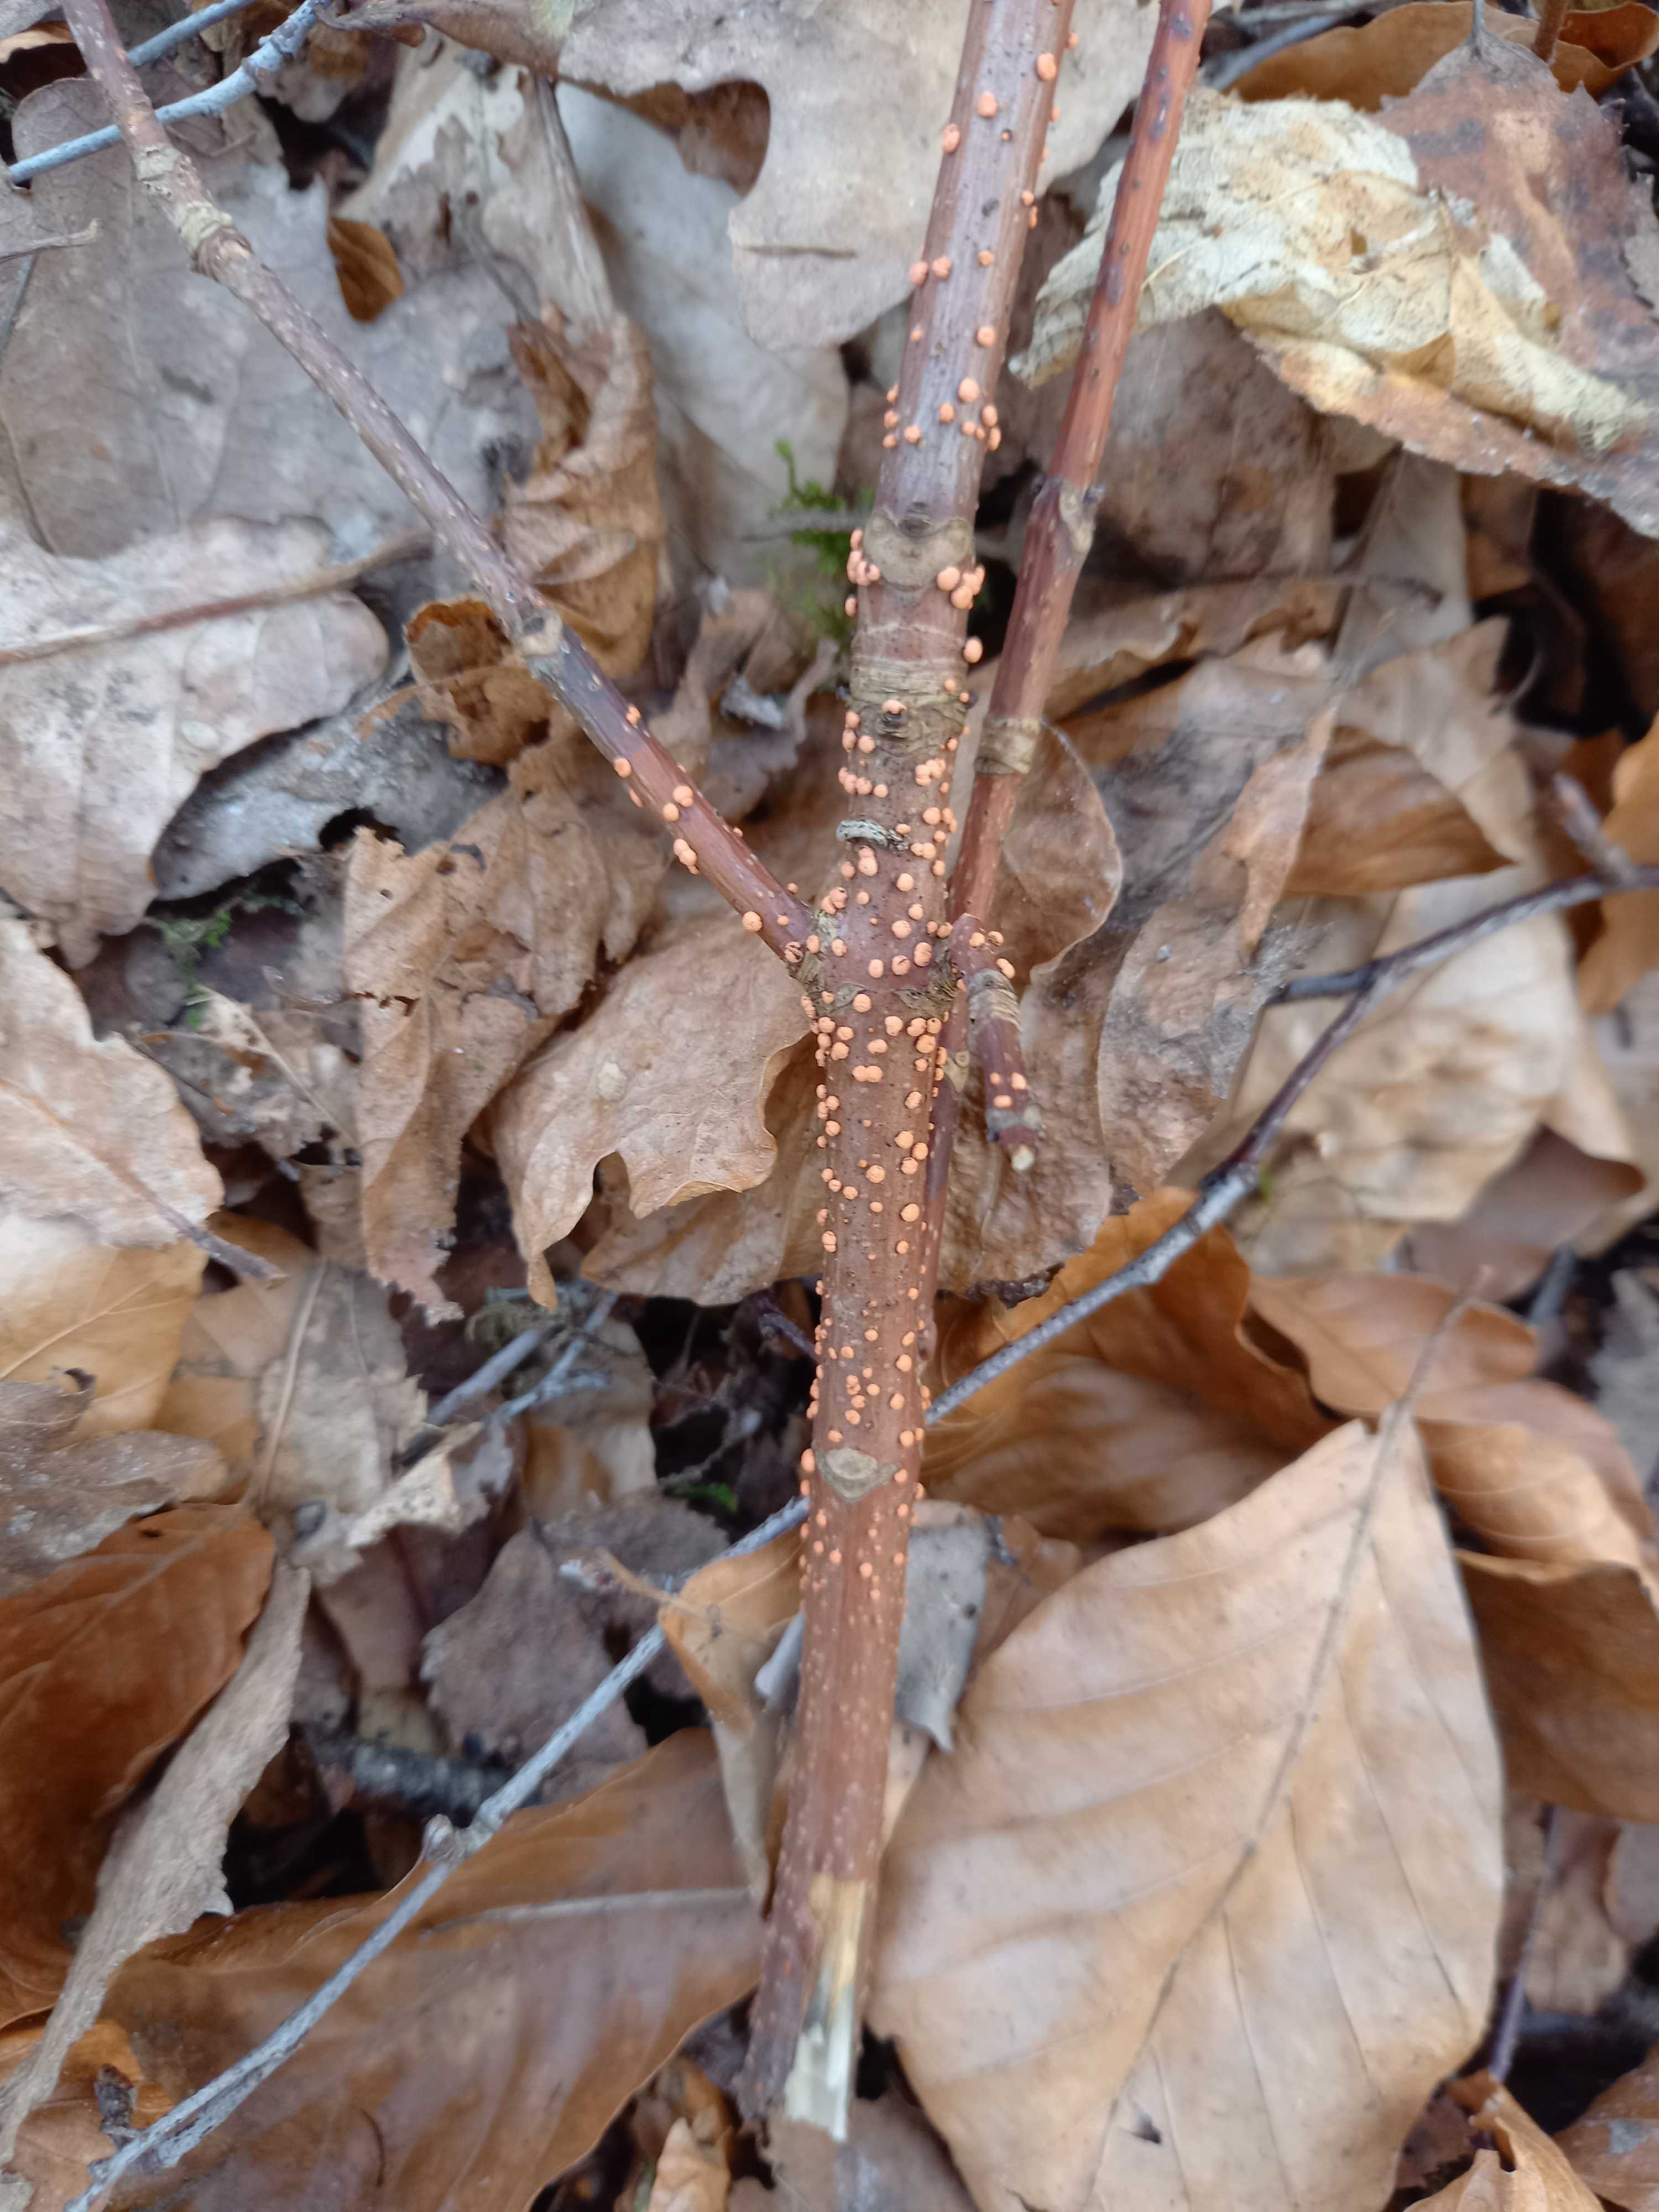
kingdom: Fungi
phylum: Ascomycota
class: Sordariomycetes
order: Hypocreales
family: Nectriaceae
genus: Nectria
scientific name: Nectria cinnabarina
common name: almindelig cinnobersvamp
